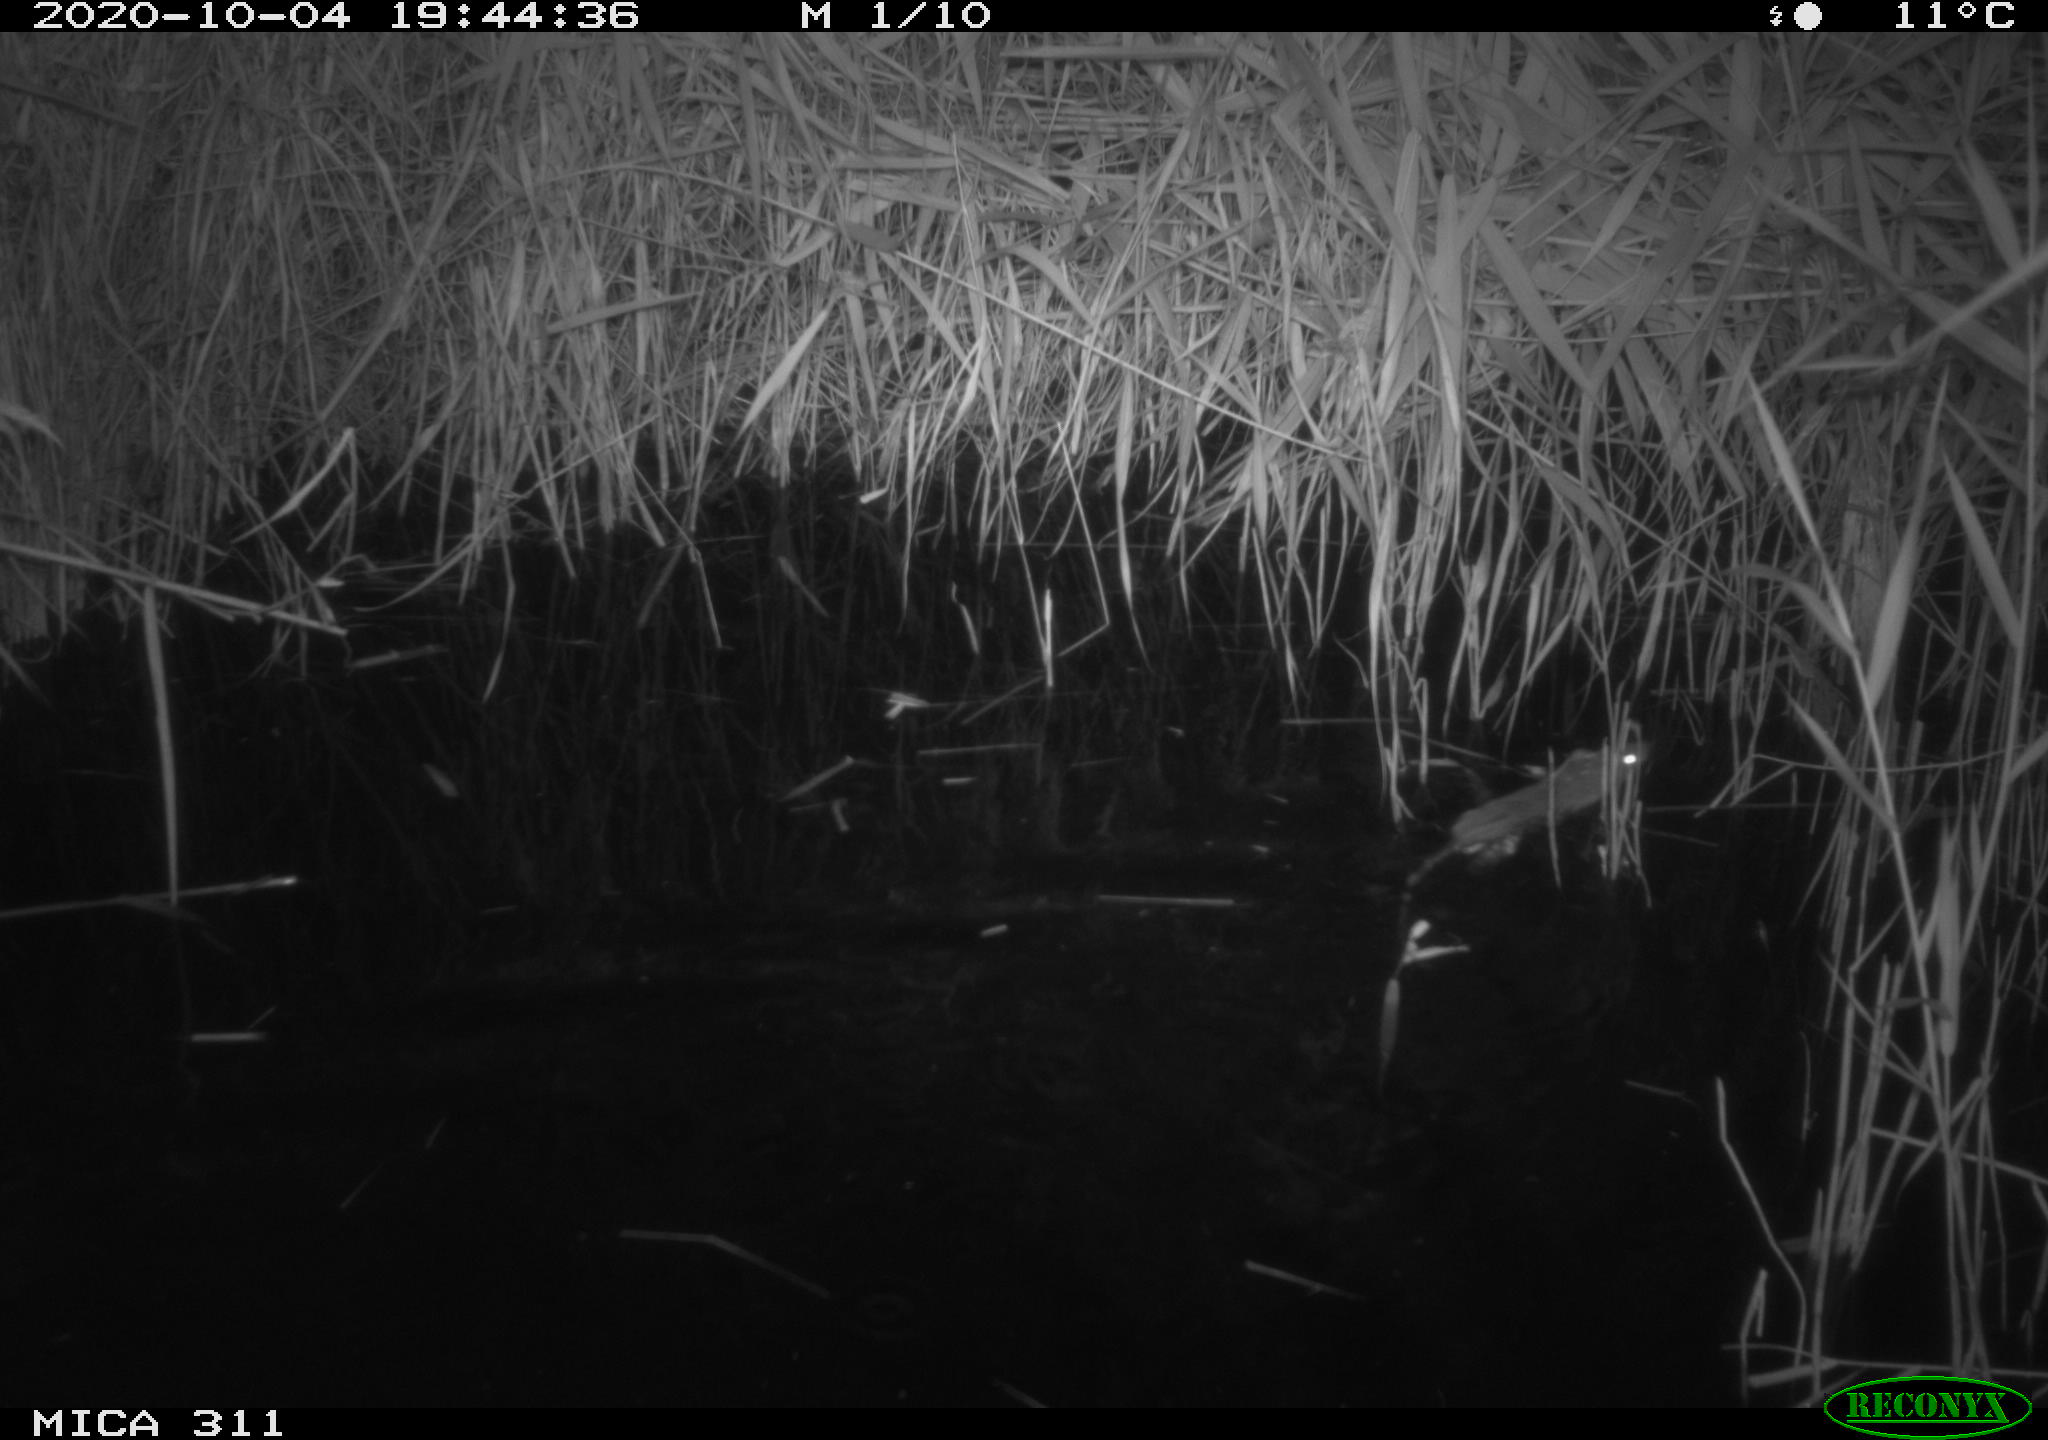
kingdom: Animalia
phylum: Chordata
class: Mammalia
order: Rodentia
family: Muridae
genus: Rattus
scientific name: Rattus norvegicus
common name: Brown rat
